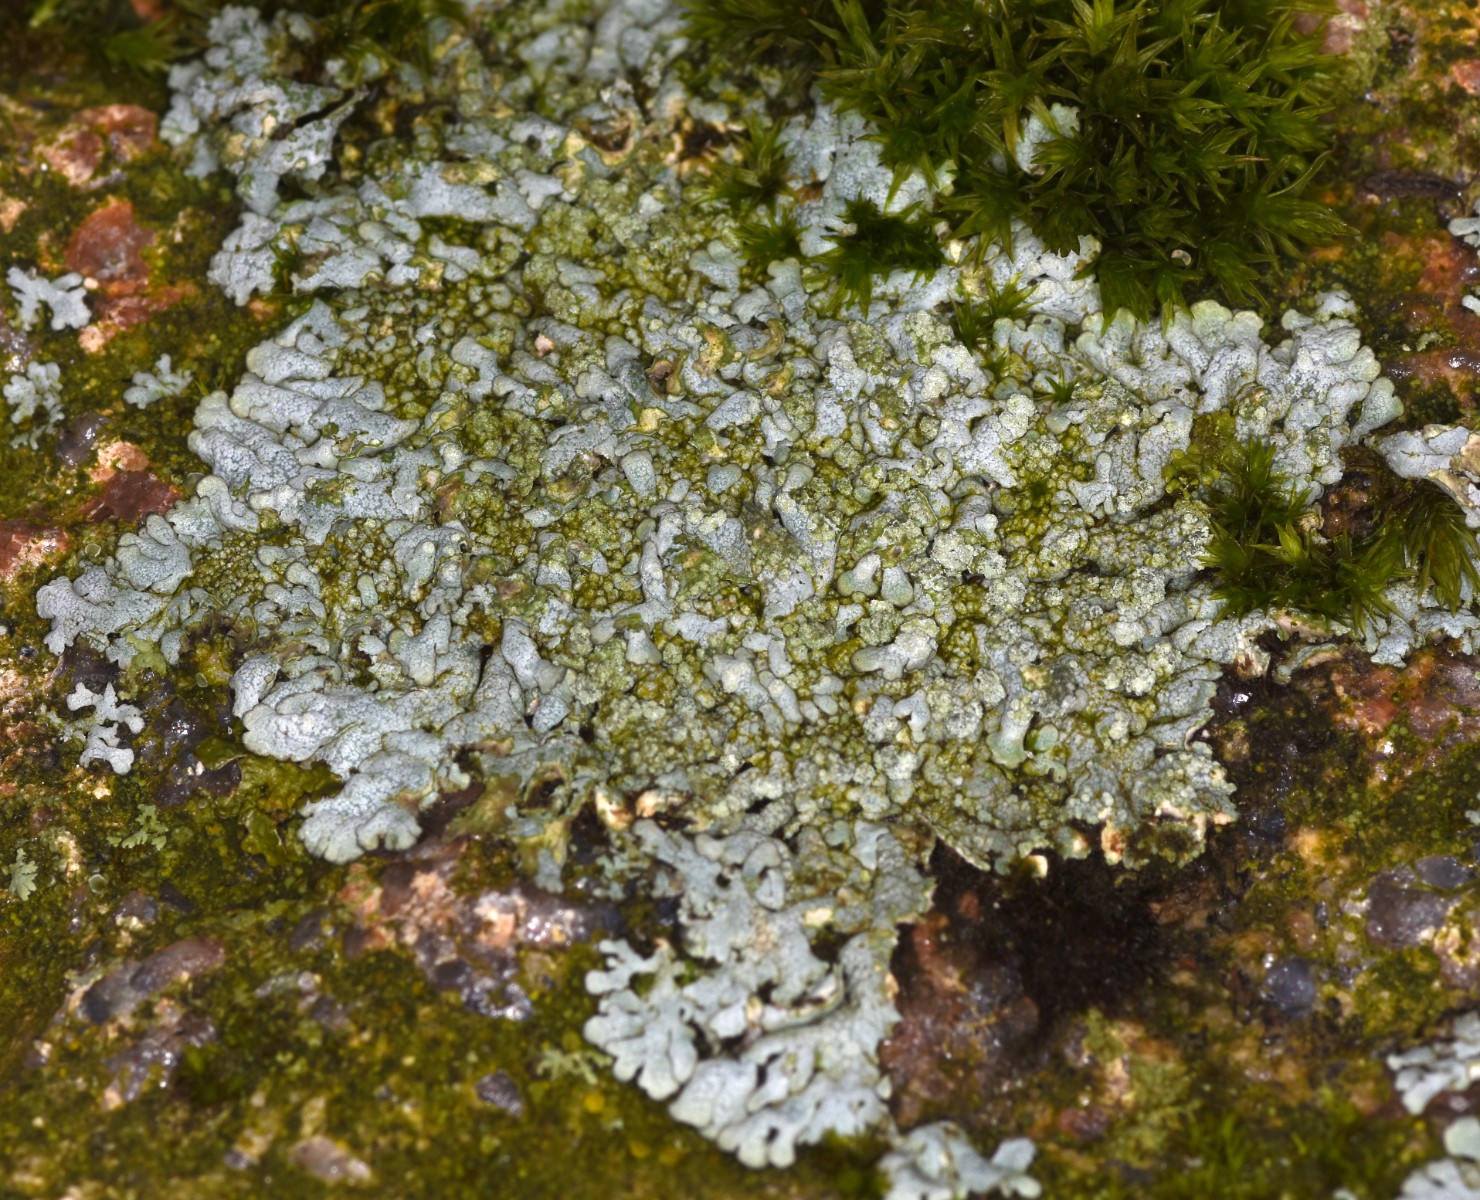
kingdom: Fungi
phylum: Ascomycota
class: Lecanoromycetes
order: Caliciales
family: Physciaceae
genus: Physcia
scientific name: Physcia caesia
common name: blågrå rosetlav
